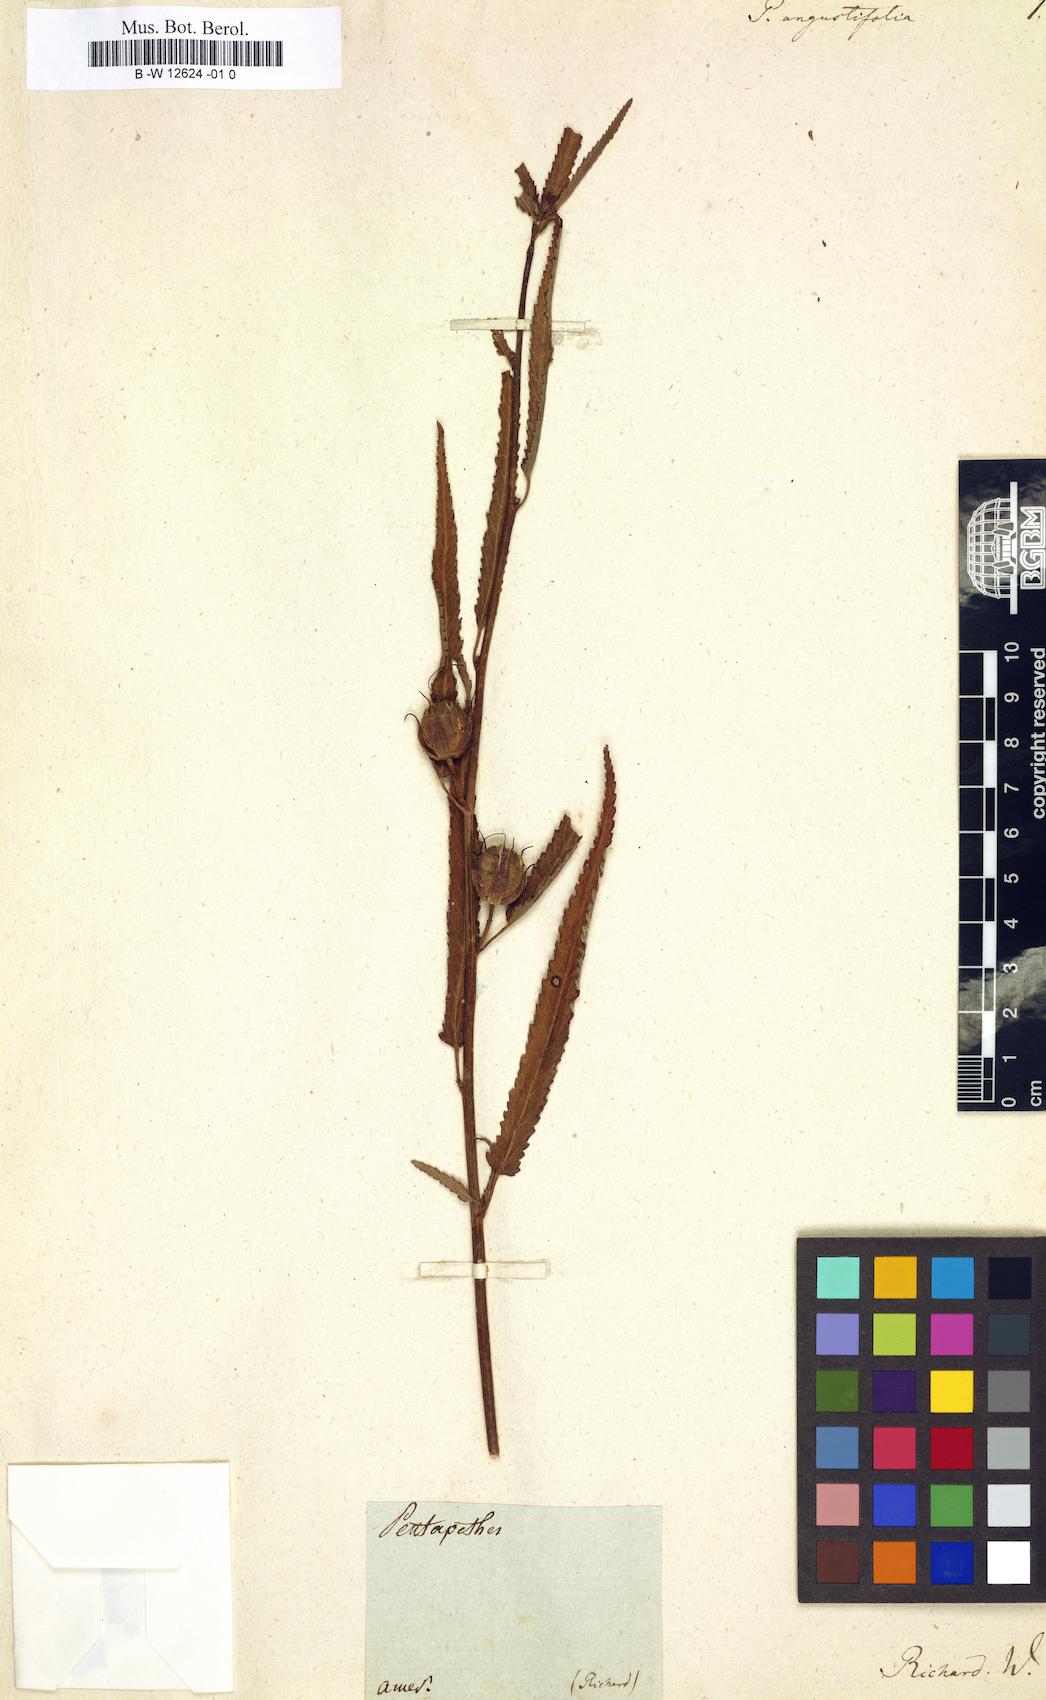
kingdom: Plantae
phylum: Tracheophyta
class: Magnoliopsida
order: Malvales
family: Malvaceae
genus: Pentapetes
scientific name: Pentapetes phoenicea
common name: Copper-cups
